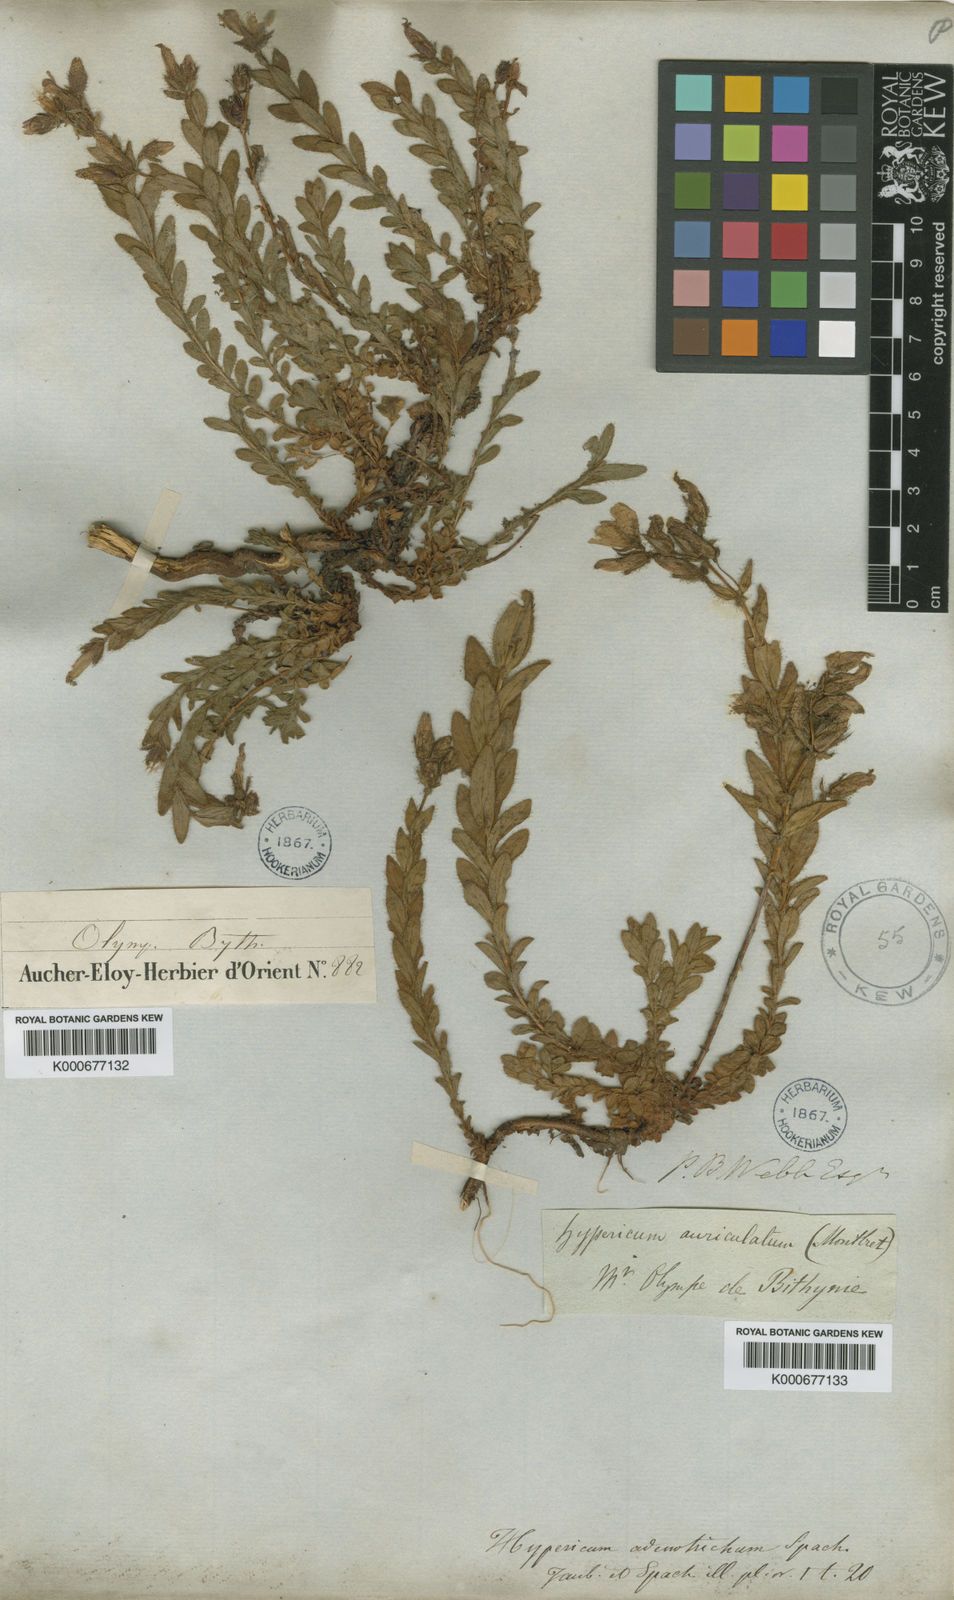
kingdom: Plantae
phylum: Tracheophyta
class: Magnoliopsida
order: Malpighiales
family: Hypericaceae
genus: Hypericum
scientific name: Hypericum adenotrichum
